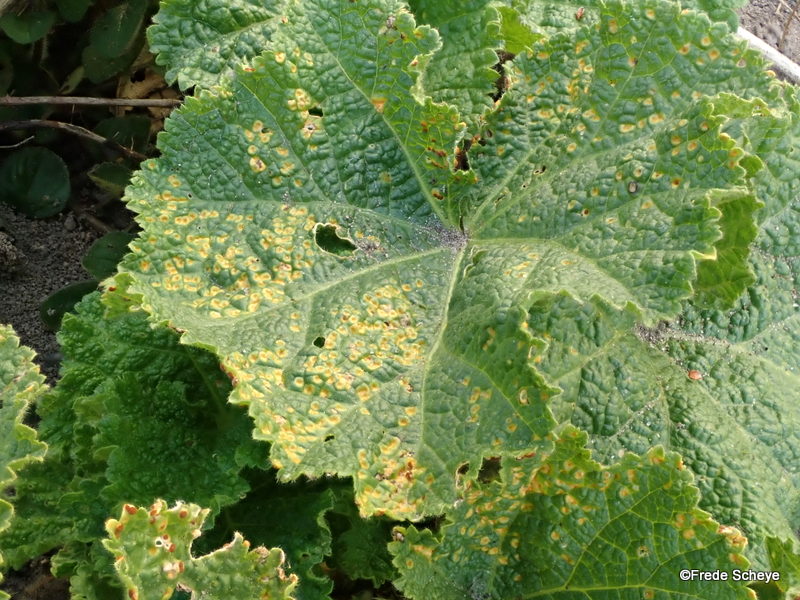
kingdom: Fungi
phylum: Basidiomycota
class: Pucciniomycetes
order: Pucciniales
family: Pucciniaceae
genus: Puccinia
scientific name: Puccinia malvacearum
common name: stokrose-tvecellerust
